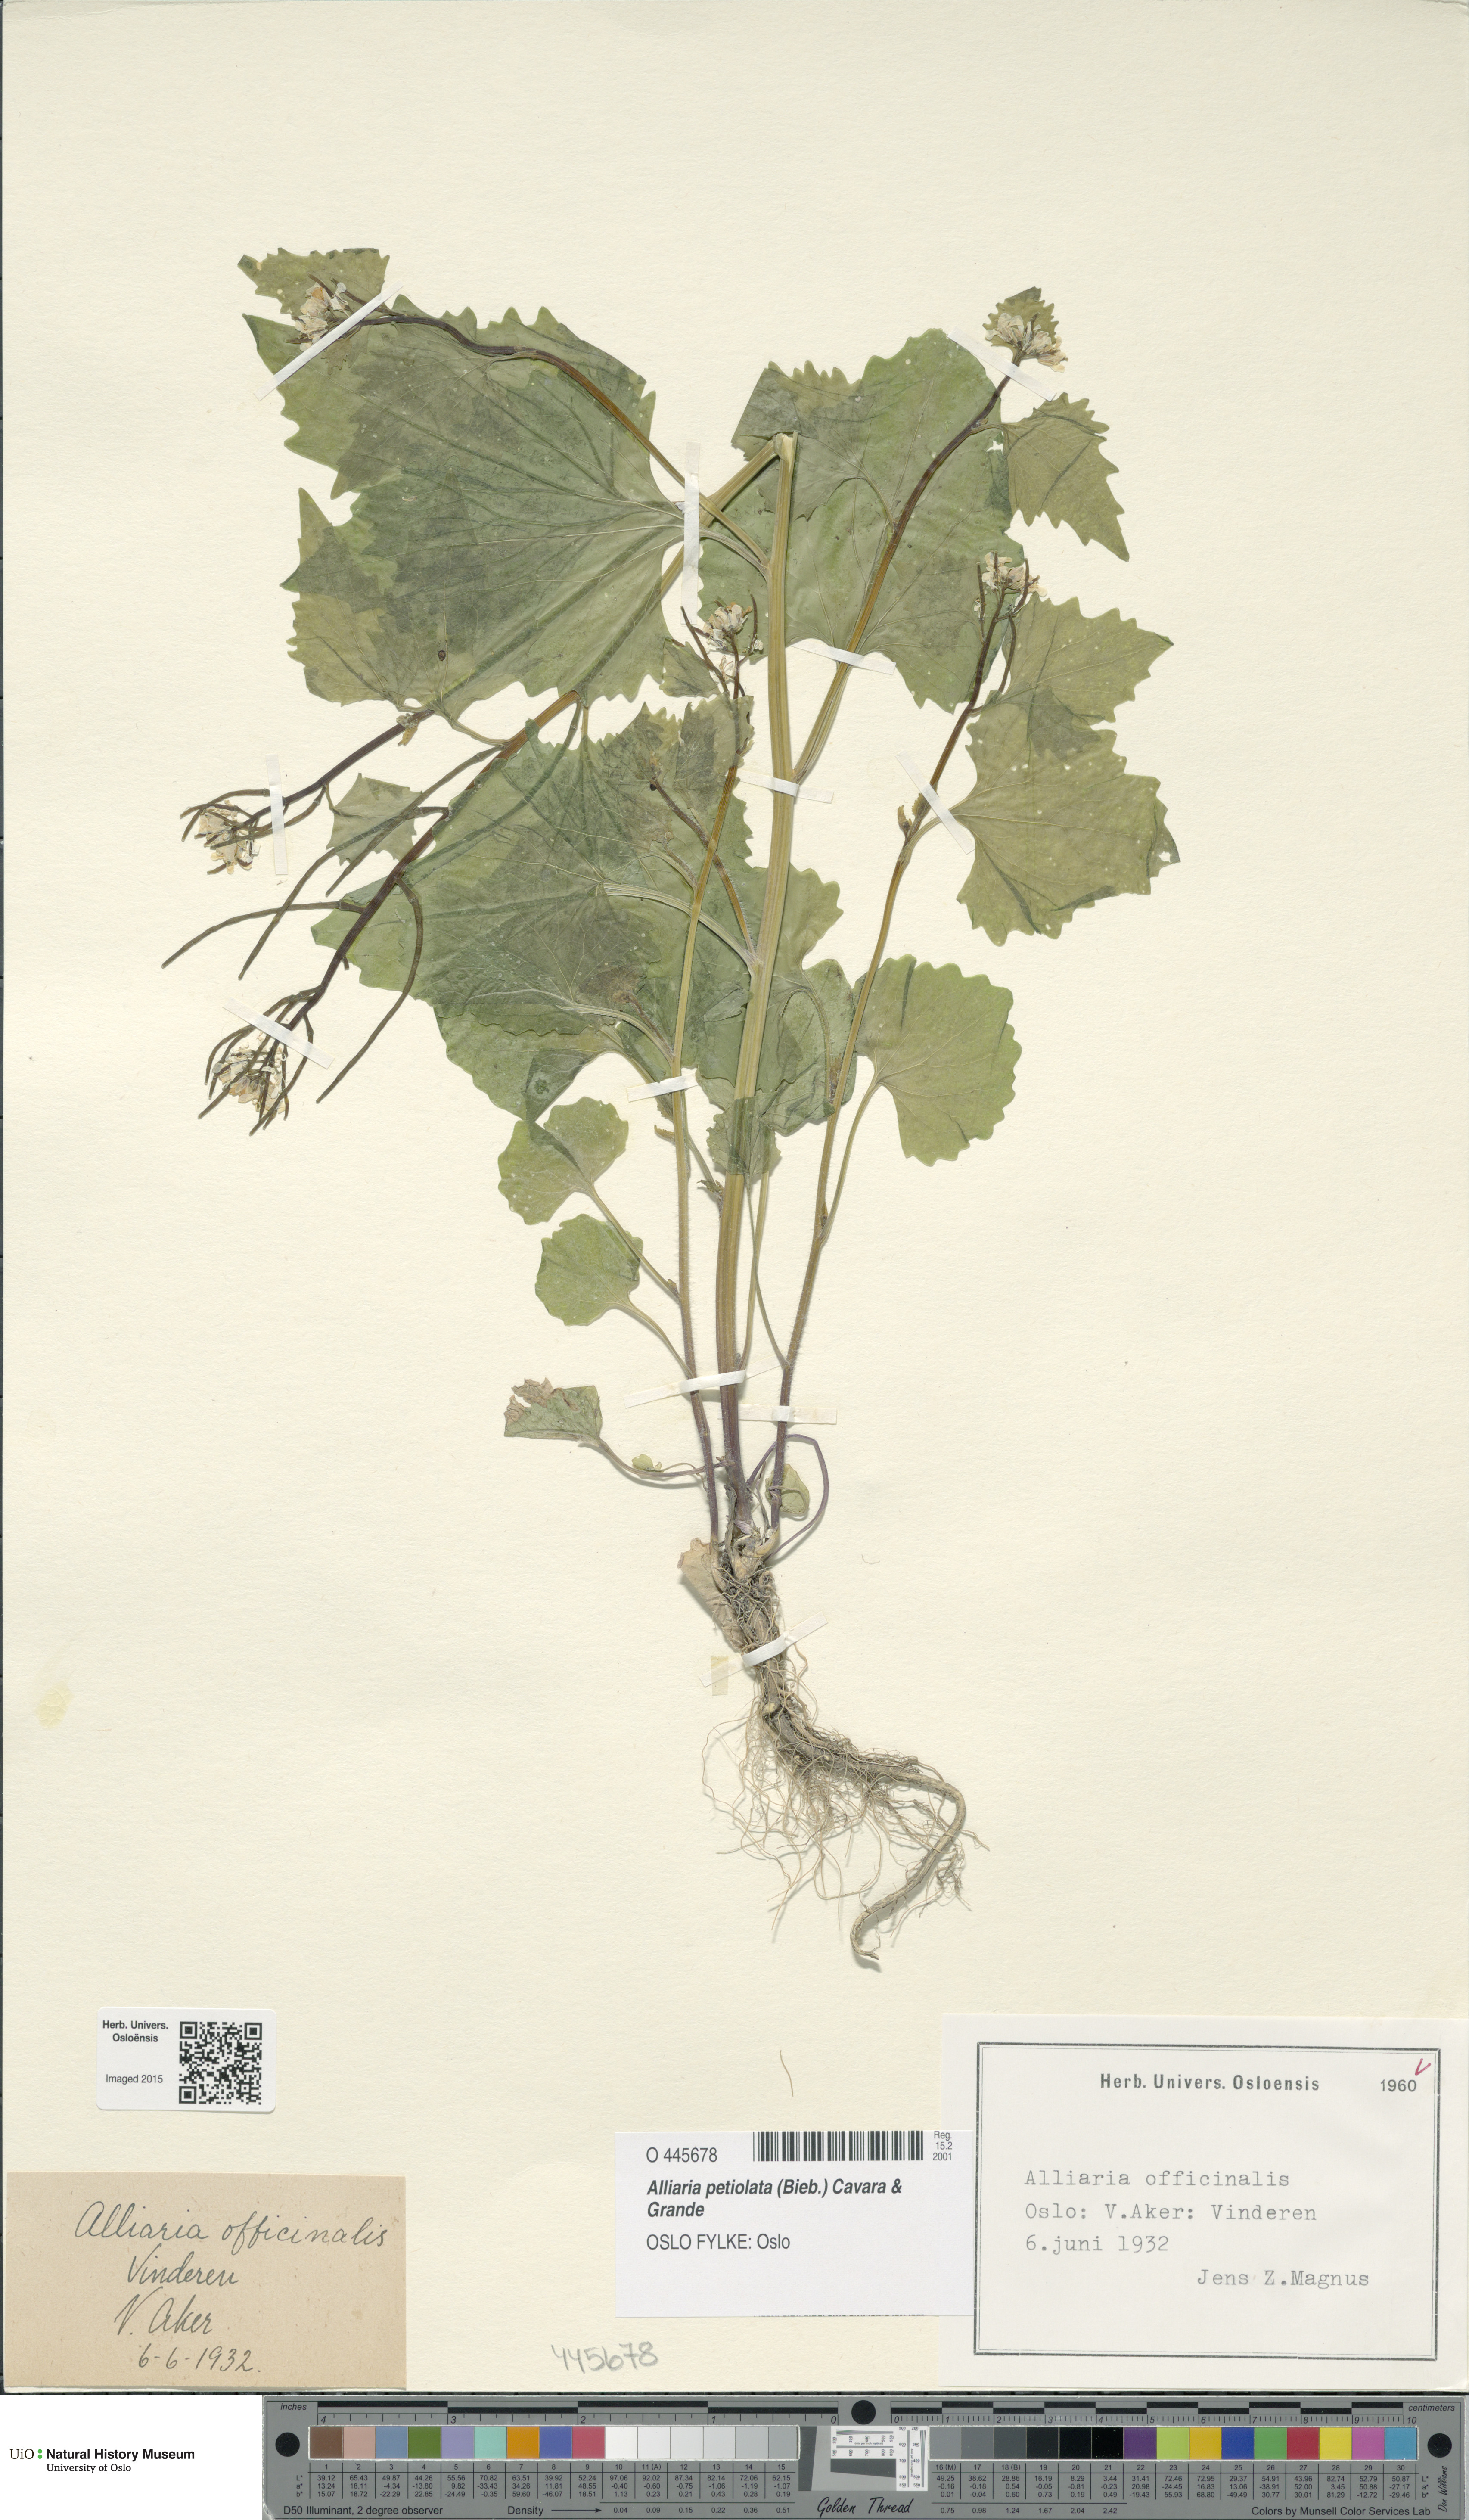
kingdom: Plantae
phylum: Tracheophyta
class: Magnoliopsida
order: Brassicales
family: Brassicaceae
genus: Alliaria
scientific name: Alliaria petiolata
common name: Garlic mustard
